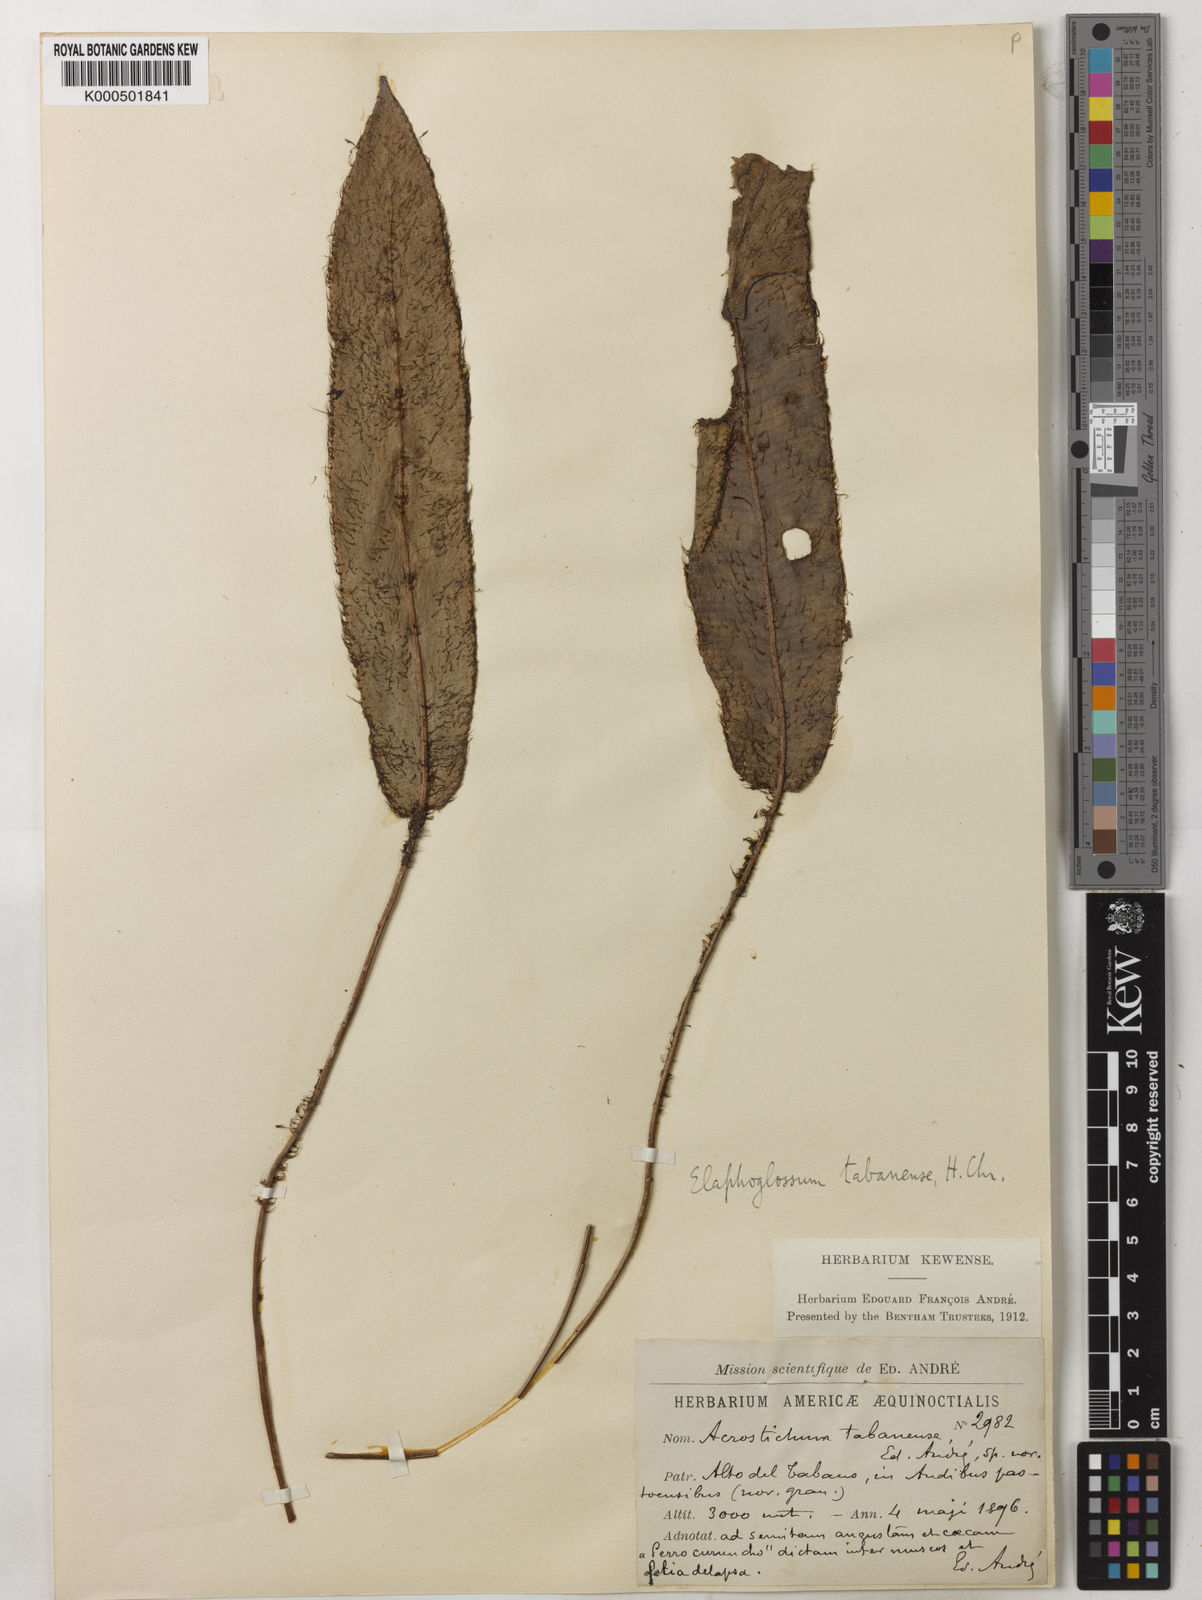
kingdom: Plantae
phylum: Tracheophyta
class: Polypodiopsida
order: Polypodiales
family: Dryopteridaceae
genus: Elaphoglossum
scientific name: Elaphoglossum
